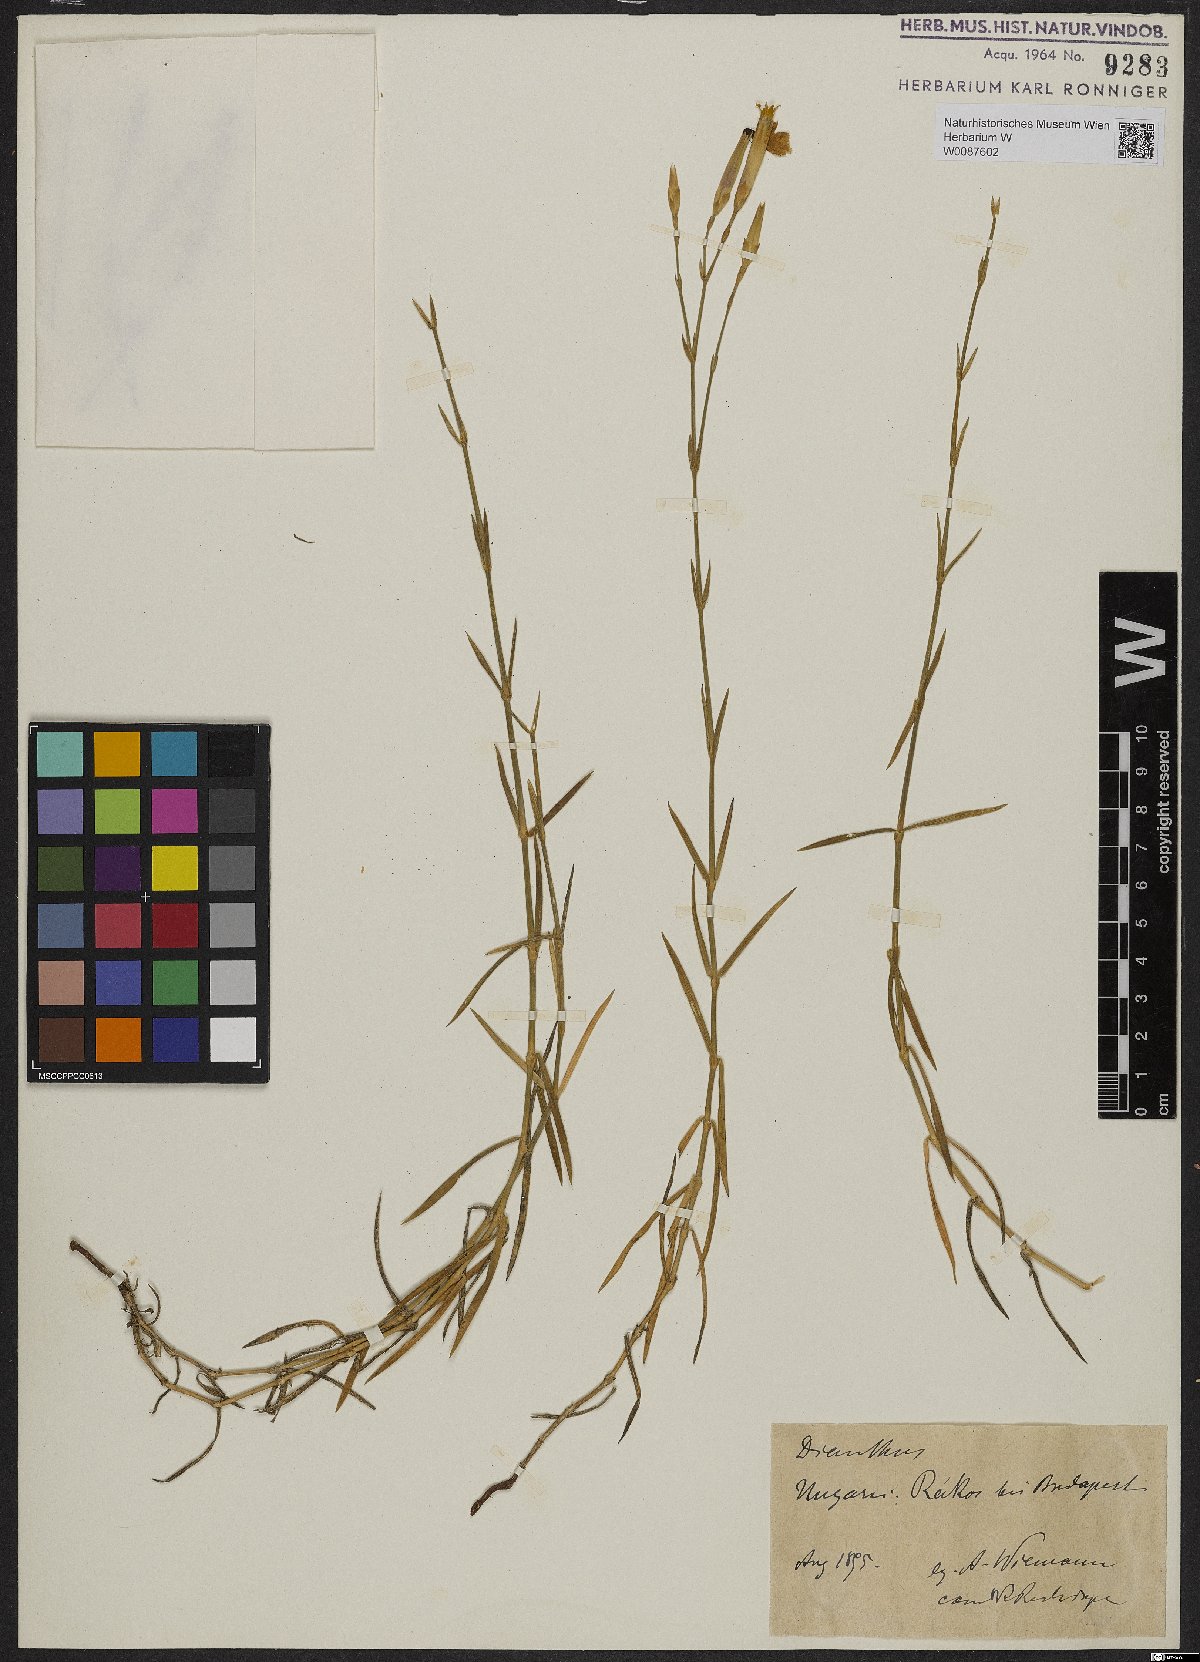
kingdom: Plantae
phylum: Tracheophyta
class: Magnoliopsida
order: Caryophyllales
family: Caryophyllaceae
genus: Dianthus
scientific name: Dianthus
